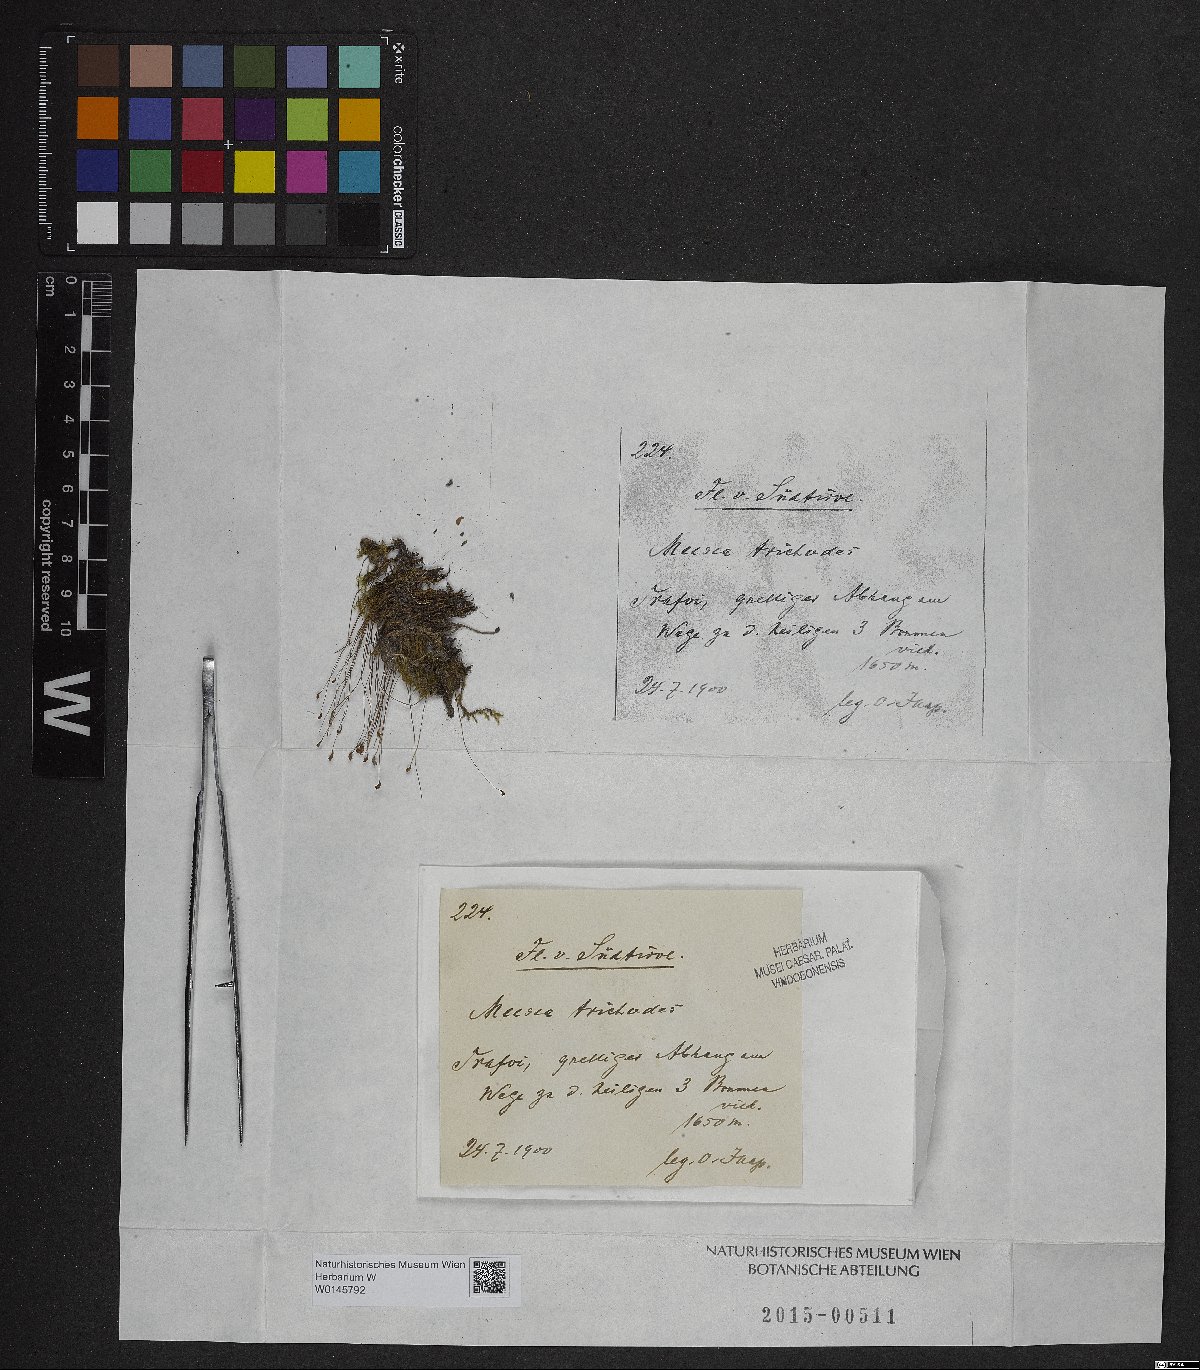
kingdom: Plantae
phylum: Bryophyta
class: Bryopsida
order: Splachnales
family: Meesiaceae
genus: Meesia
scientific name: Meesia uliginosa
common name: Capillary thread moss
